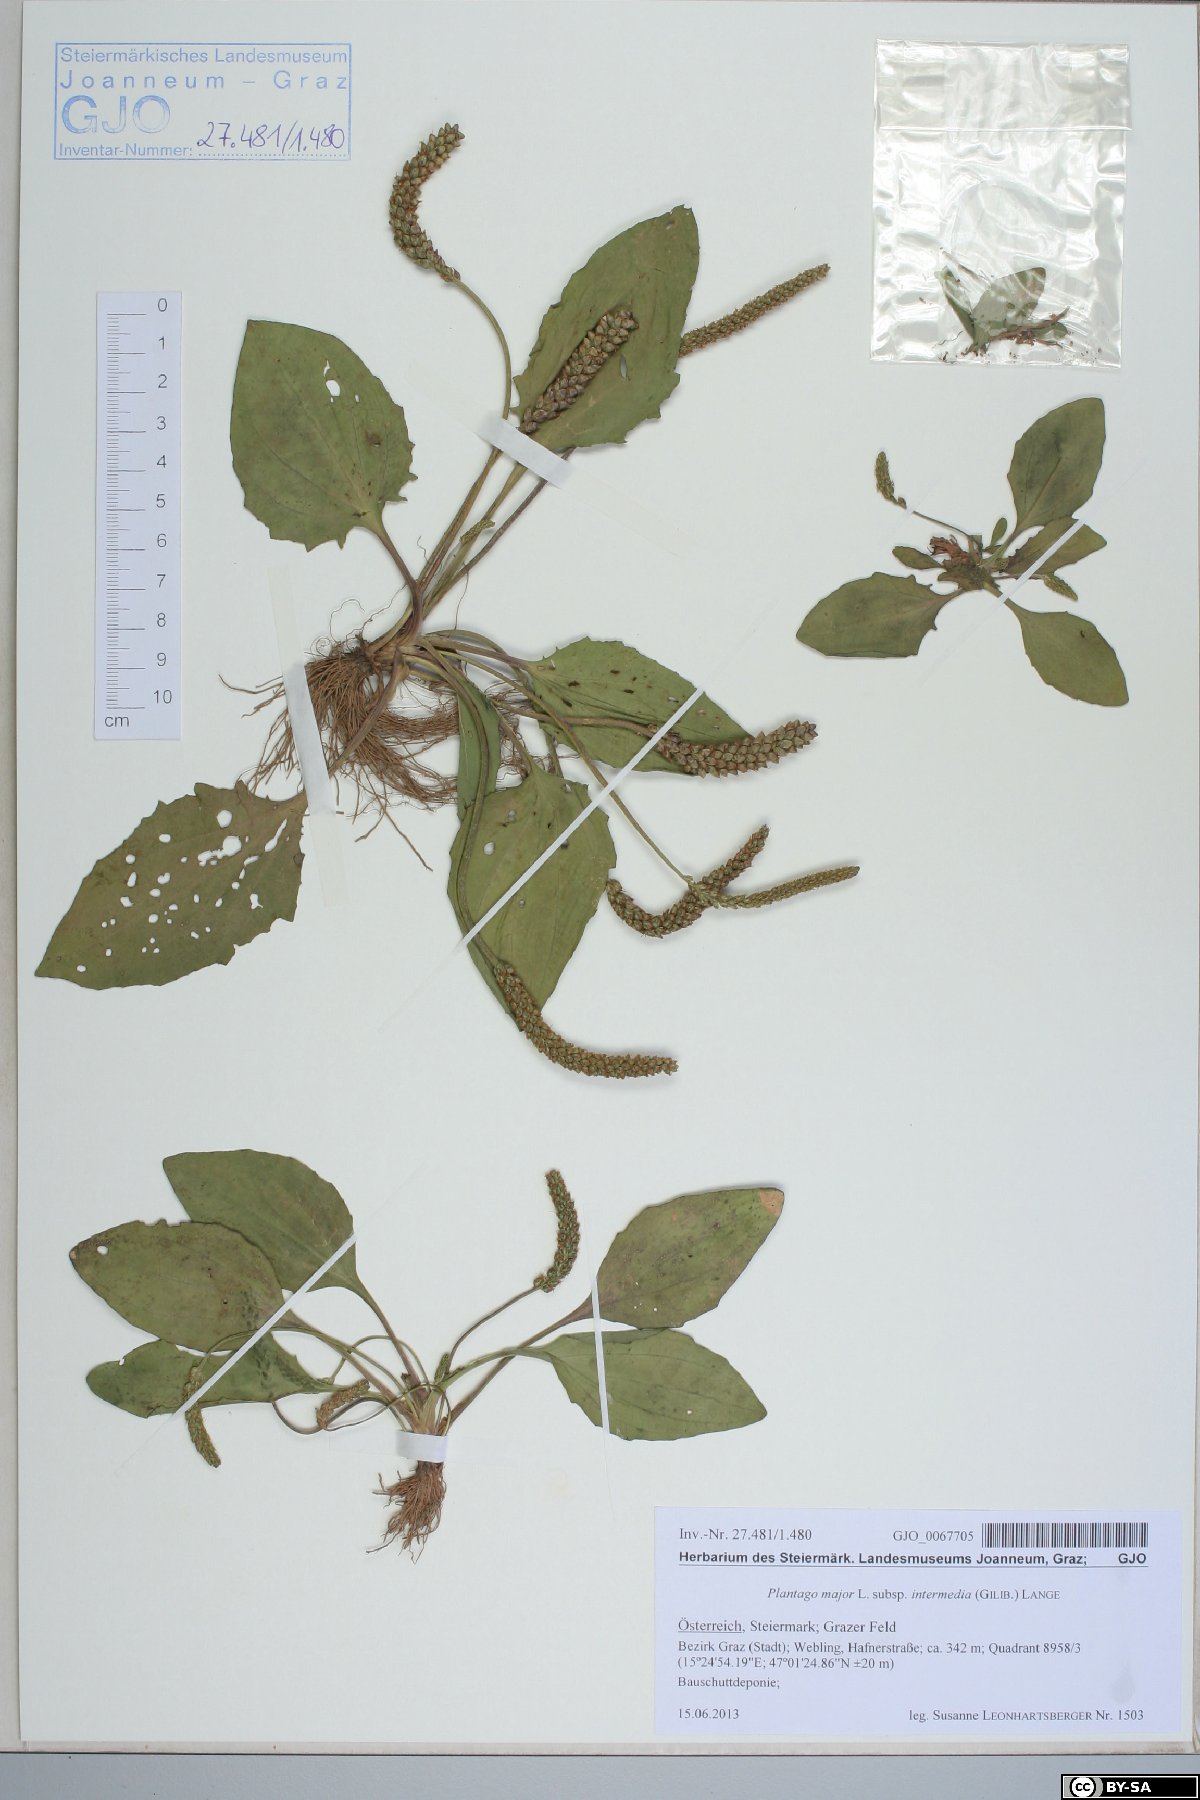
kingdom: Plantae
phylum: Tracheophyta
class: Magnoliopsida
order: Lamiales
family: Plantaginaceae
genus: Plantago
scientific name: Plantago uliginosa
